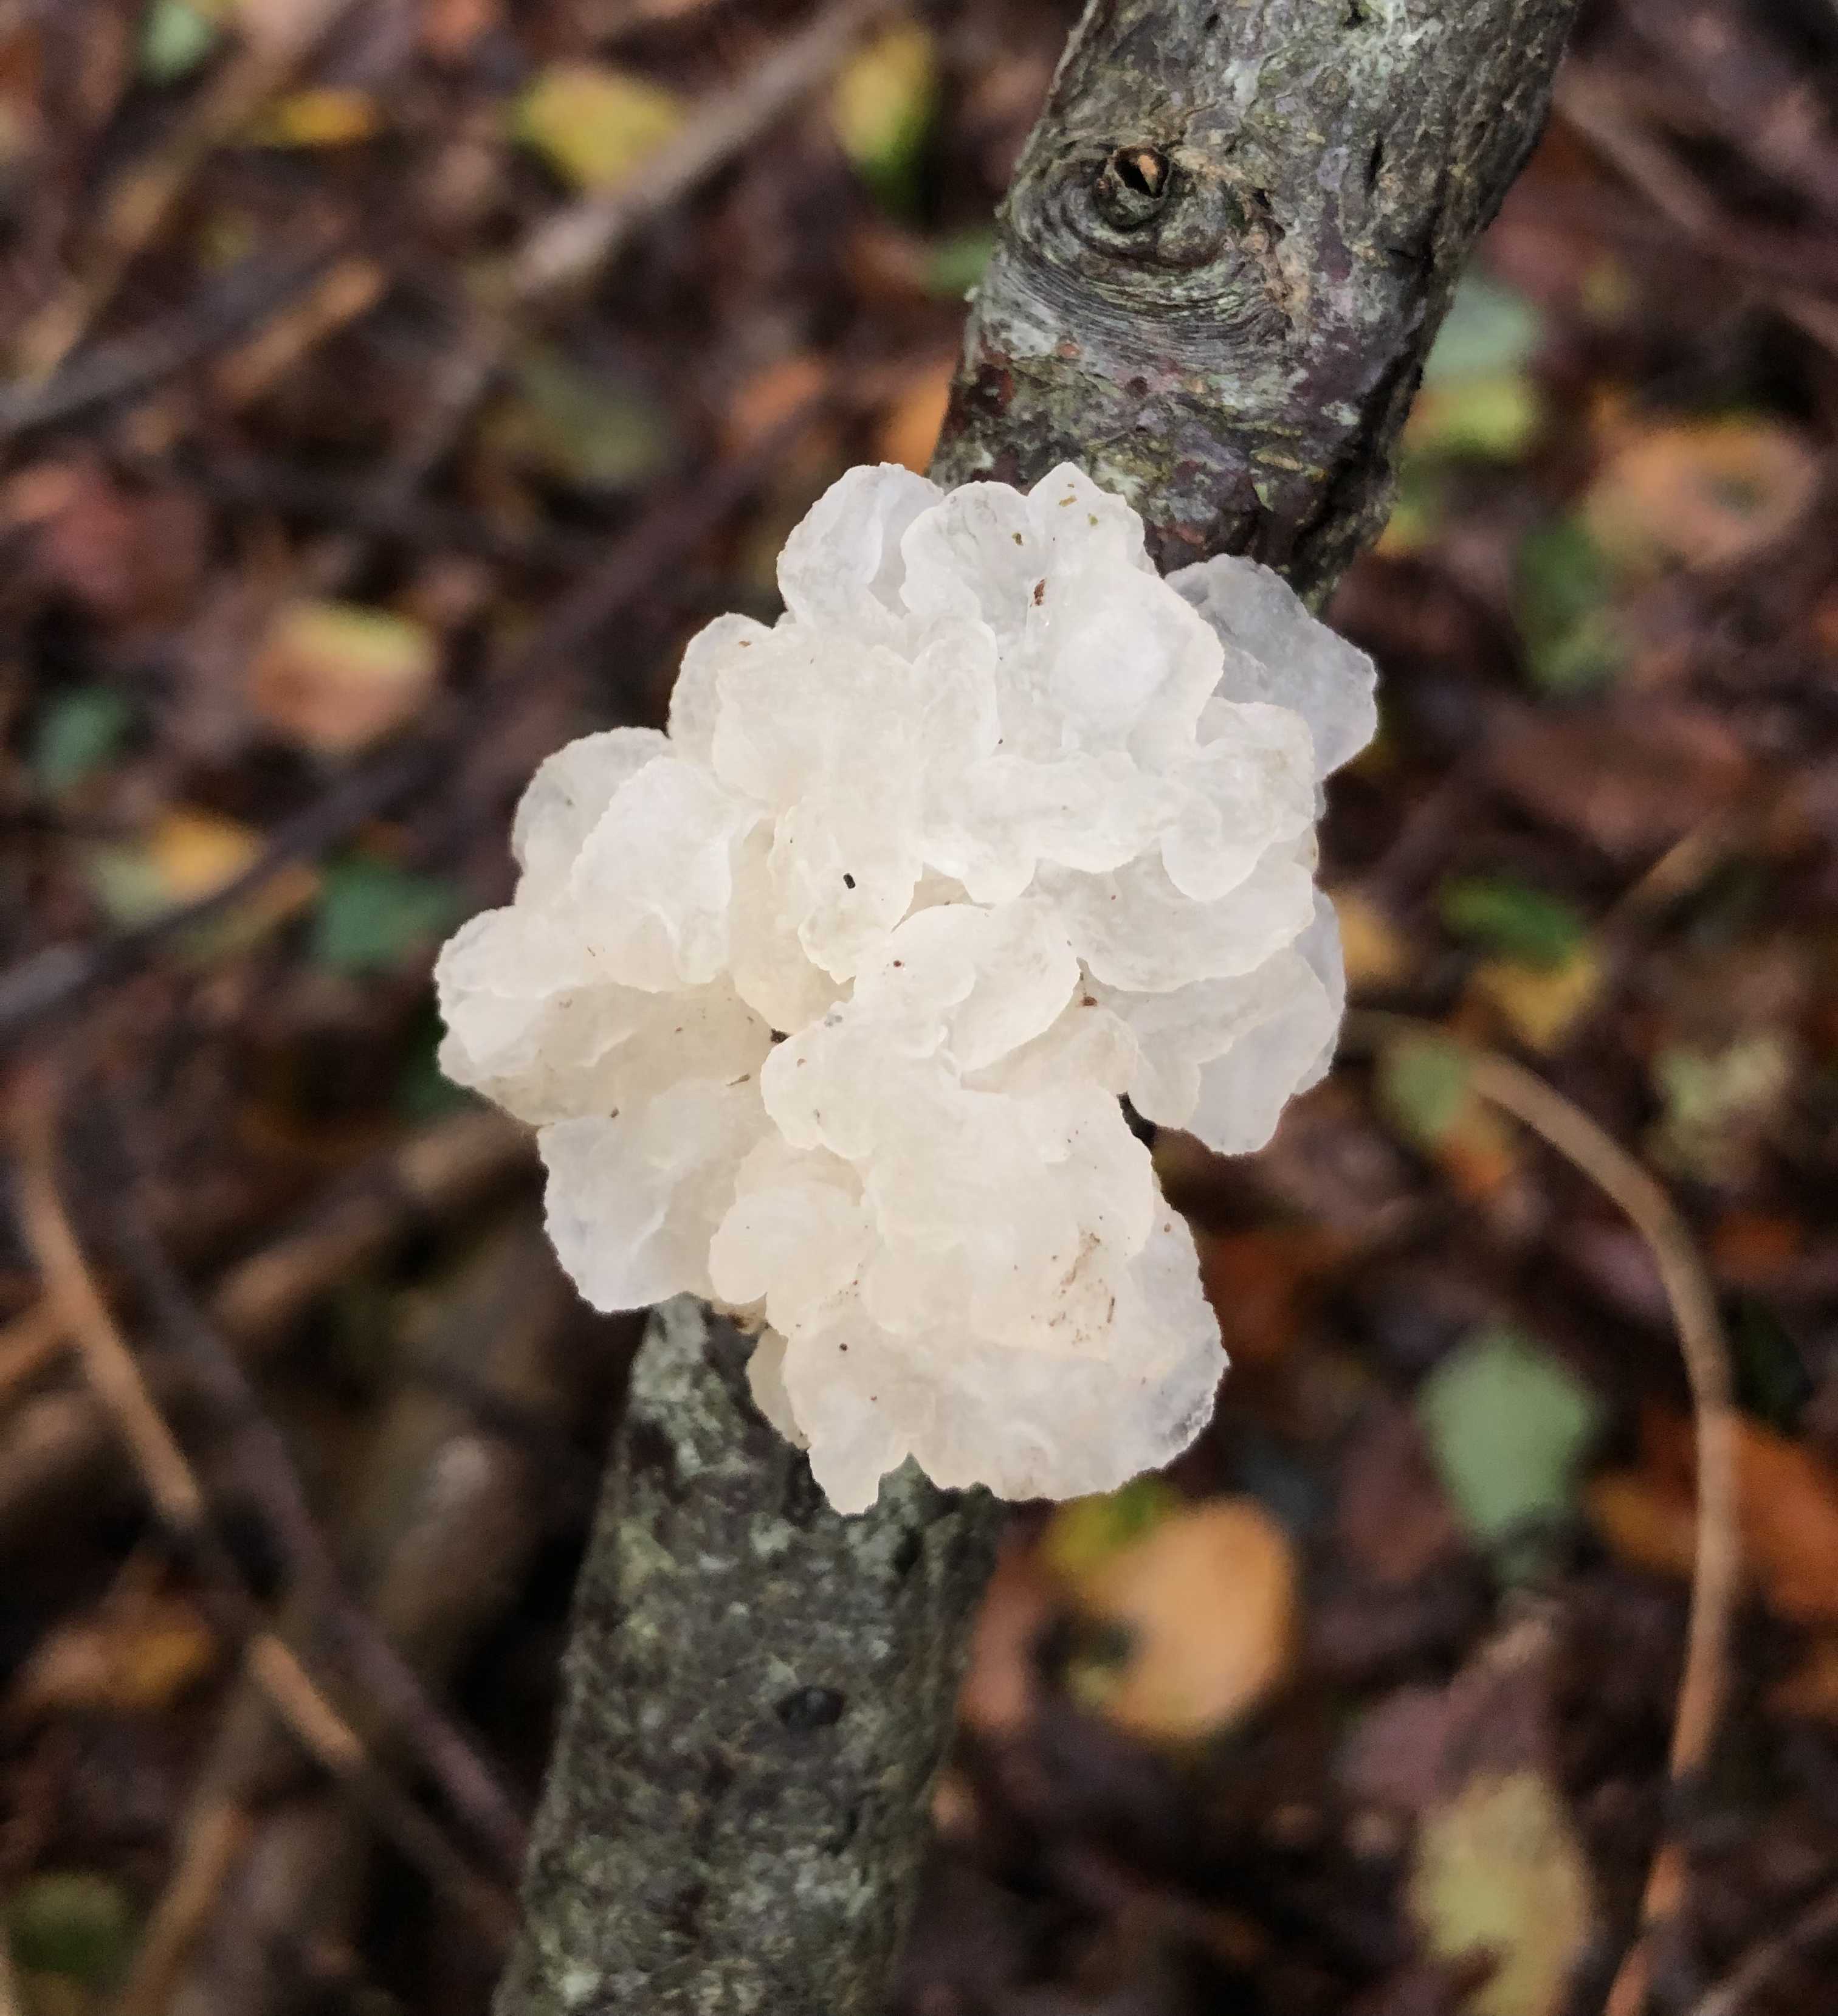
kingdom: Fungi
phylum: Basidiomycota
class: Tremellomycetes
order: Tremellales
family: Tremellaceae
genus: Tremella
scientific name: Tremella mesenterica
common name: gul bævresvamp
